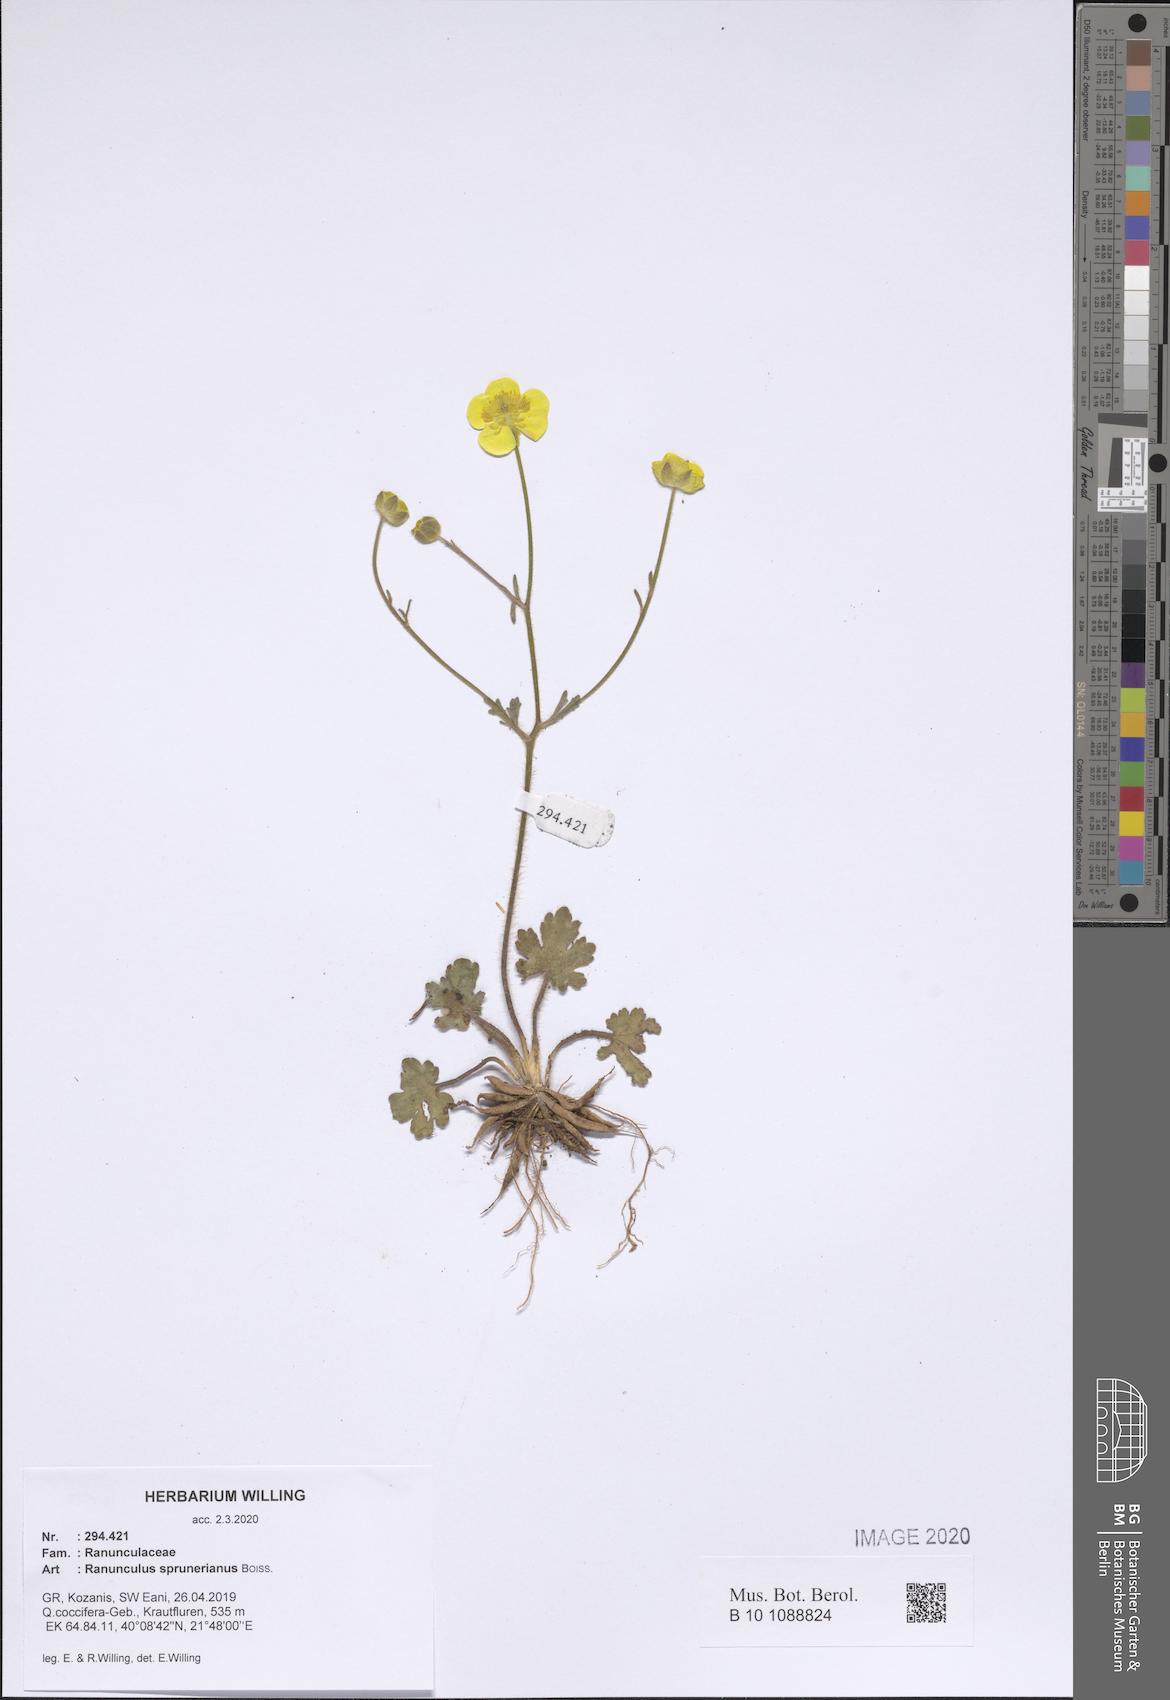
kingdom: Plantae
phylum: Tracheophyta
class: Magnoliopsida
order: Ranunculales
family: Ranunculaceae
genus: Ranunculus
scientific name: Ranunculus sprunerianus
